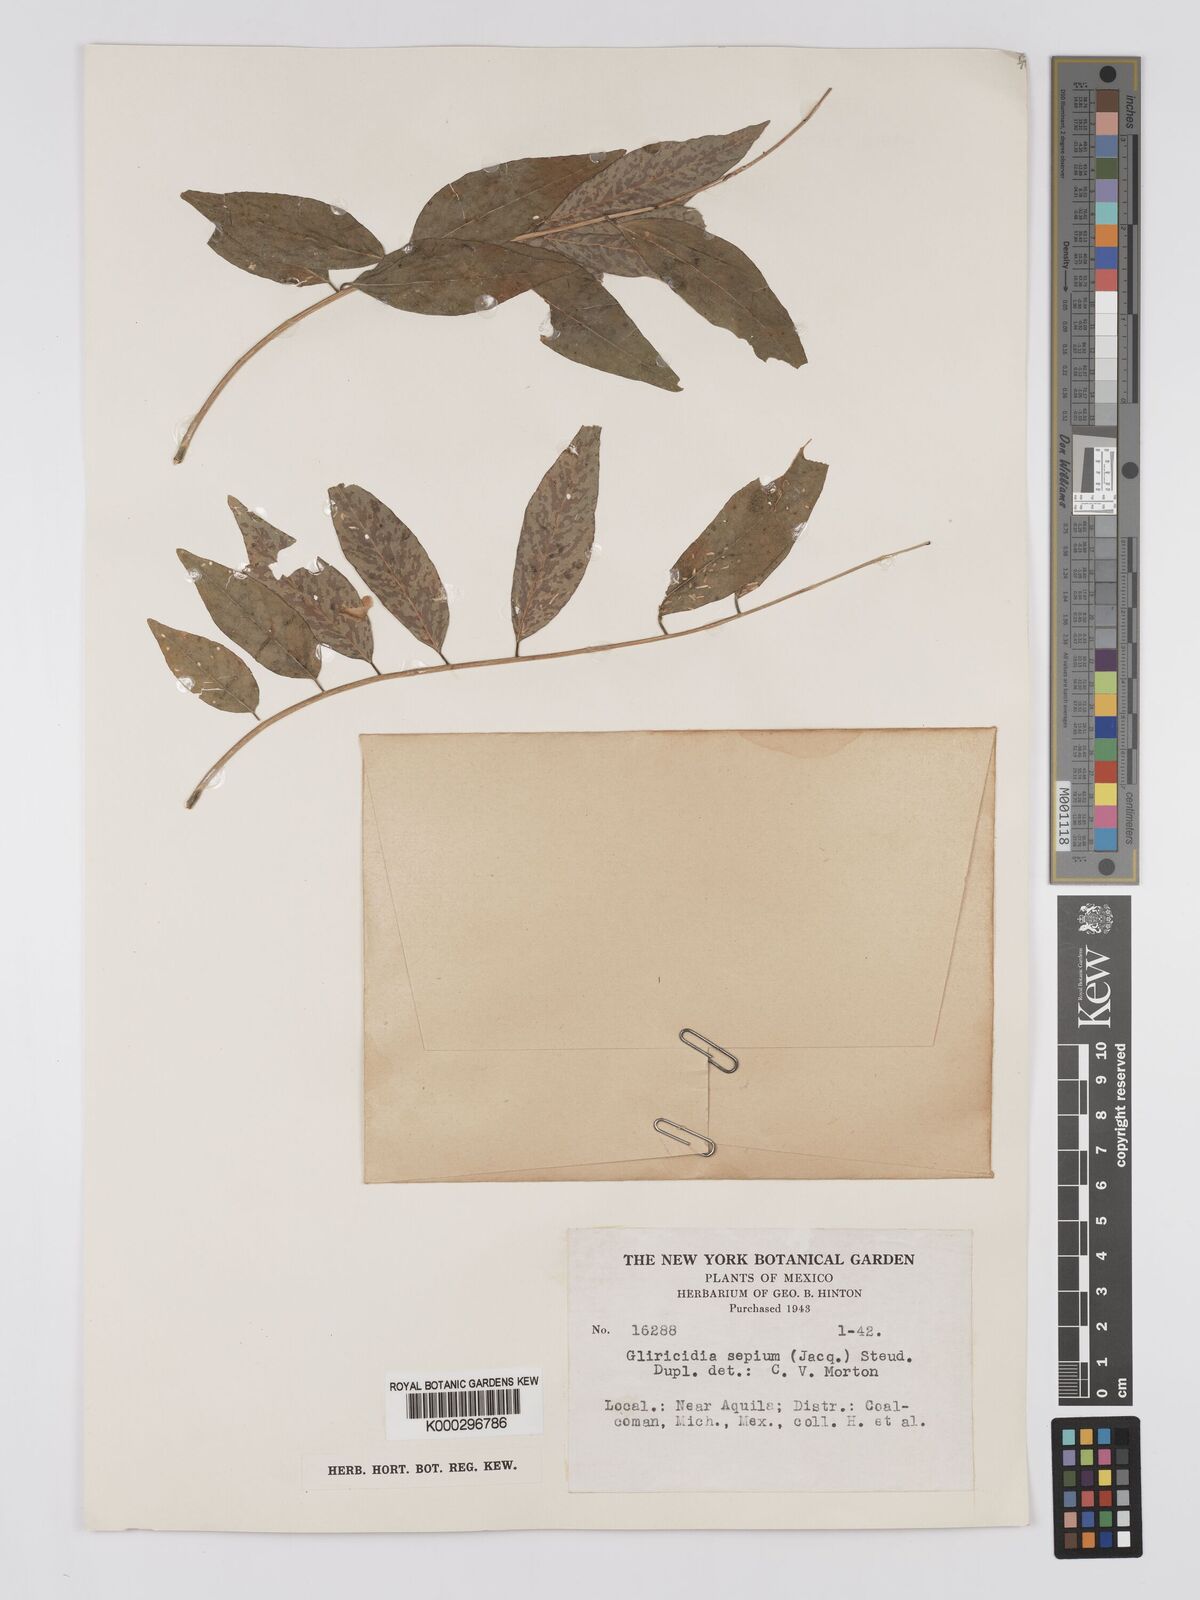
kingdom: Plantae
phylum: Tracheophyta
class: Magnoliopsida
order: Fabales
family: Fabaceae
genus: Gliricidia
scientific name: Gliricidia sepium
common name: Quickstick
